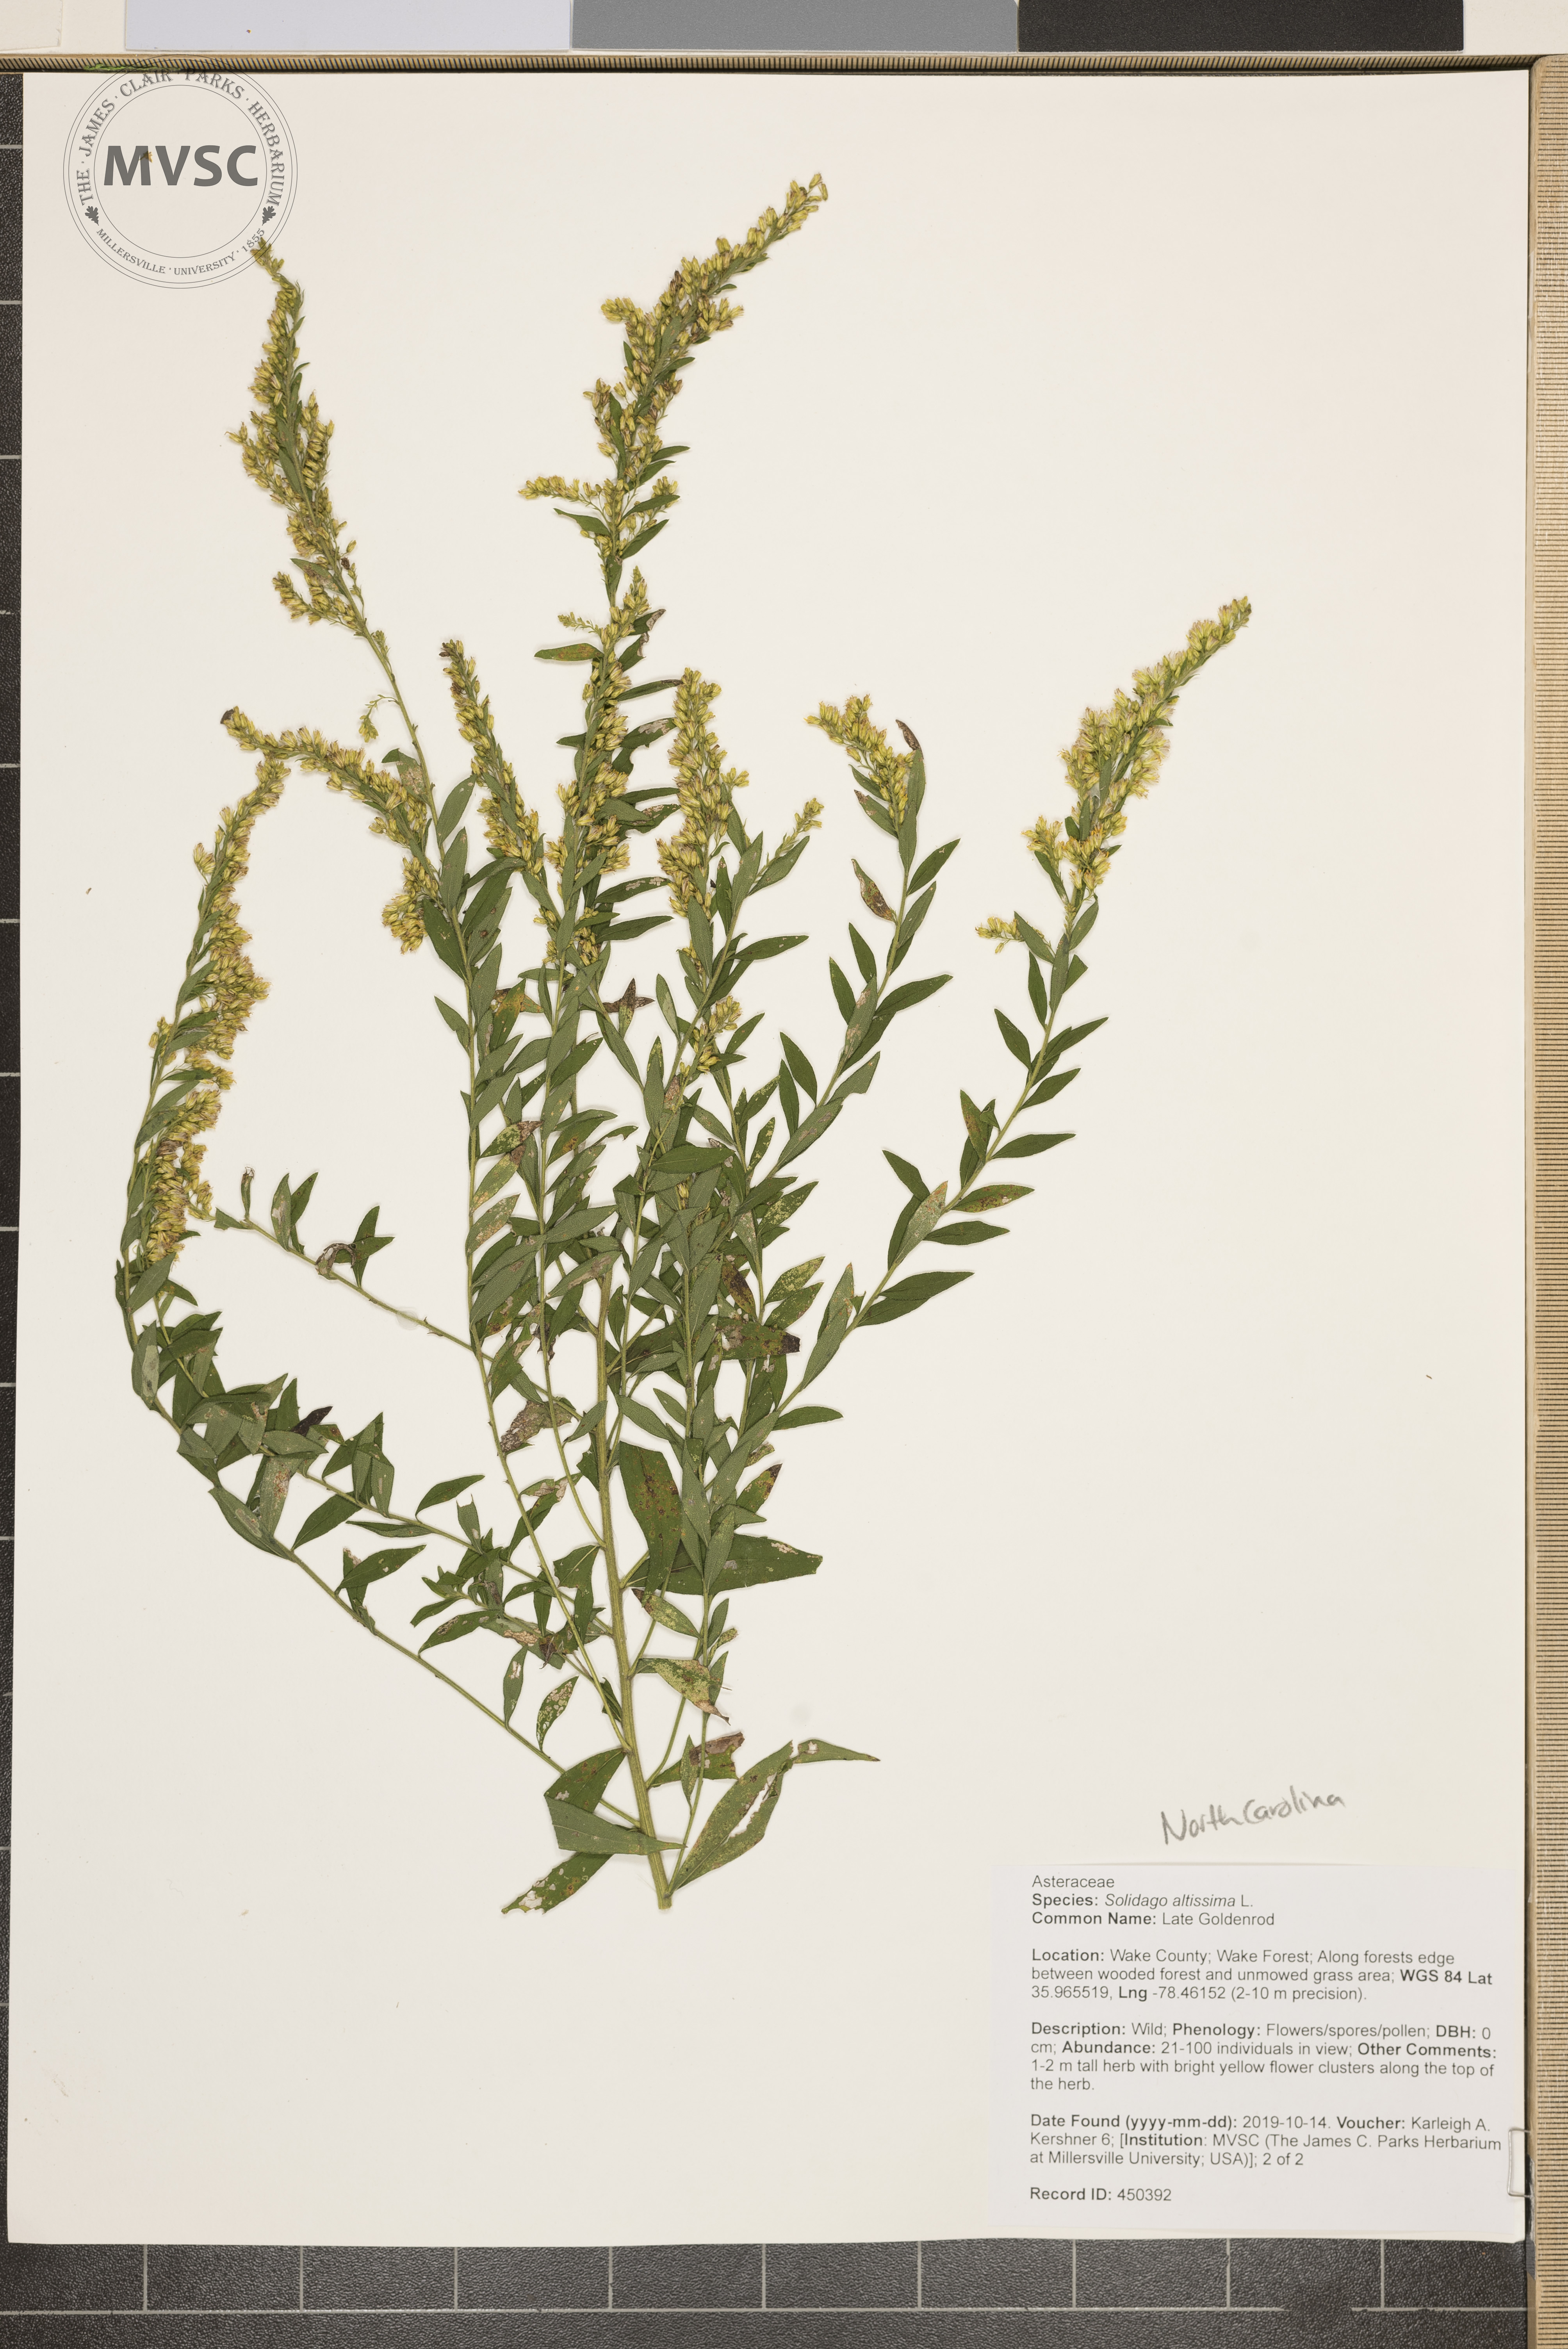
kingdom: Plantae
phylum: Tracheophyta
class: Magnoliopsida
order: Asterales
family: Asteraceae
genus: Solidago
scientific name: Solidago altissima
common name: Late Goldenrod
